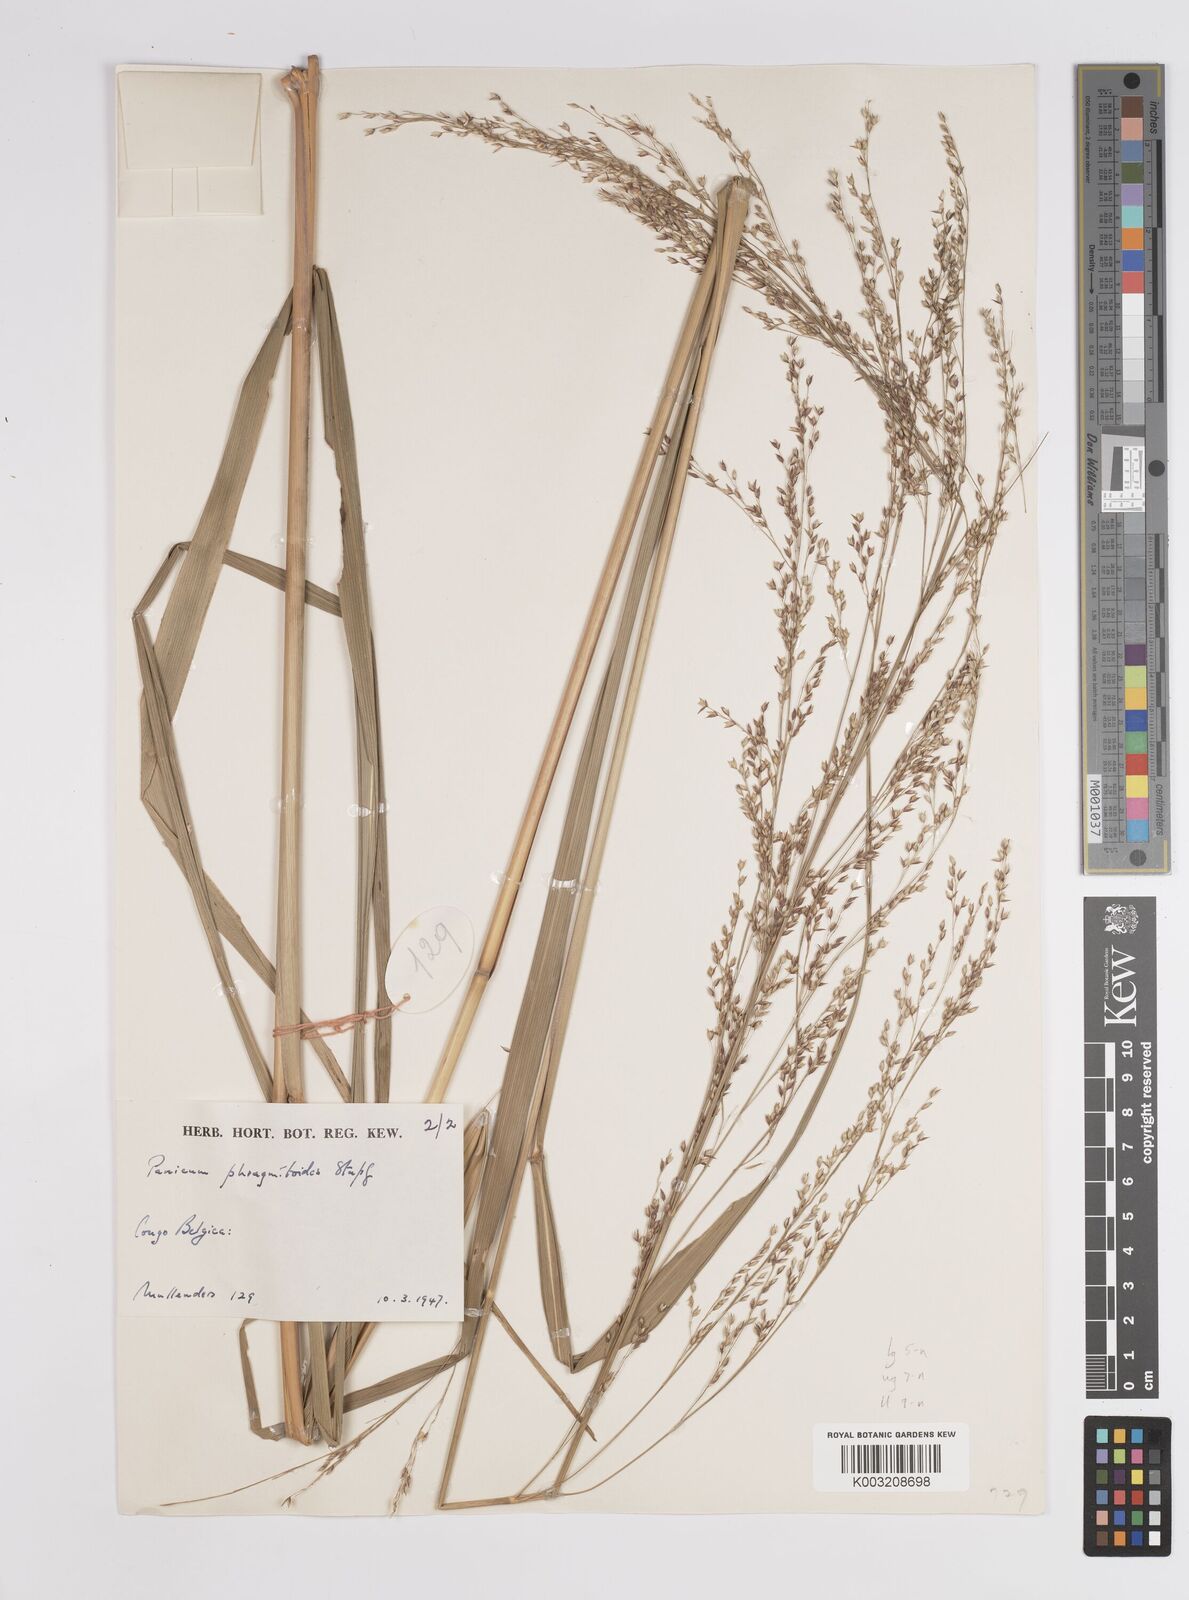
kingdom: Plantae
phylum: Tracheophyta
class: Liliopsida
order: Poales
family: Poaceae
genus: Panicum
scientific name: Panicum phragmitoides
